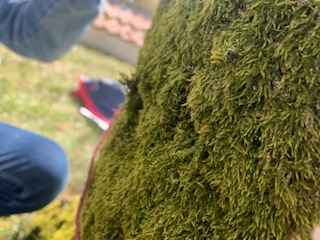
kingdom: Plantae
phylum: Bryophyta
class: Bryopsida
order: Hypnales
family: Hypnaceae
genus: Hypnum
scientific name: Hypnum
